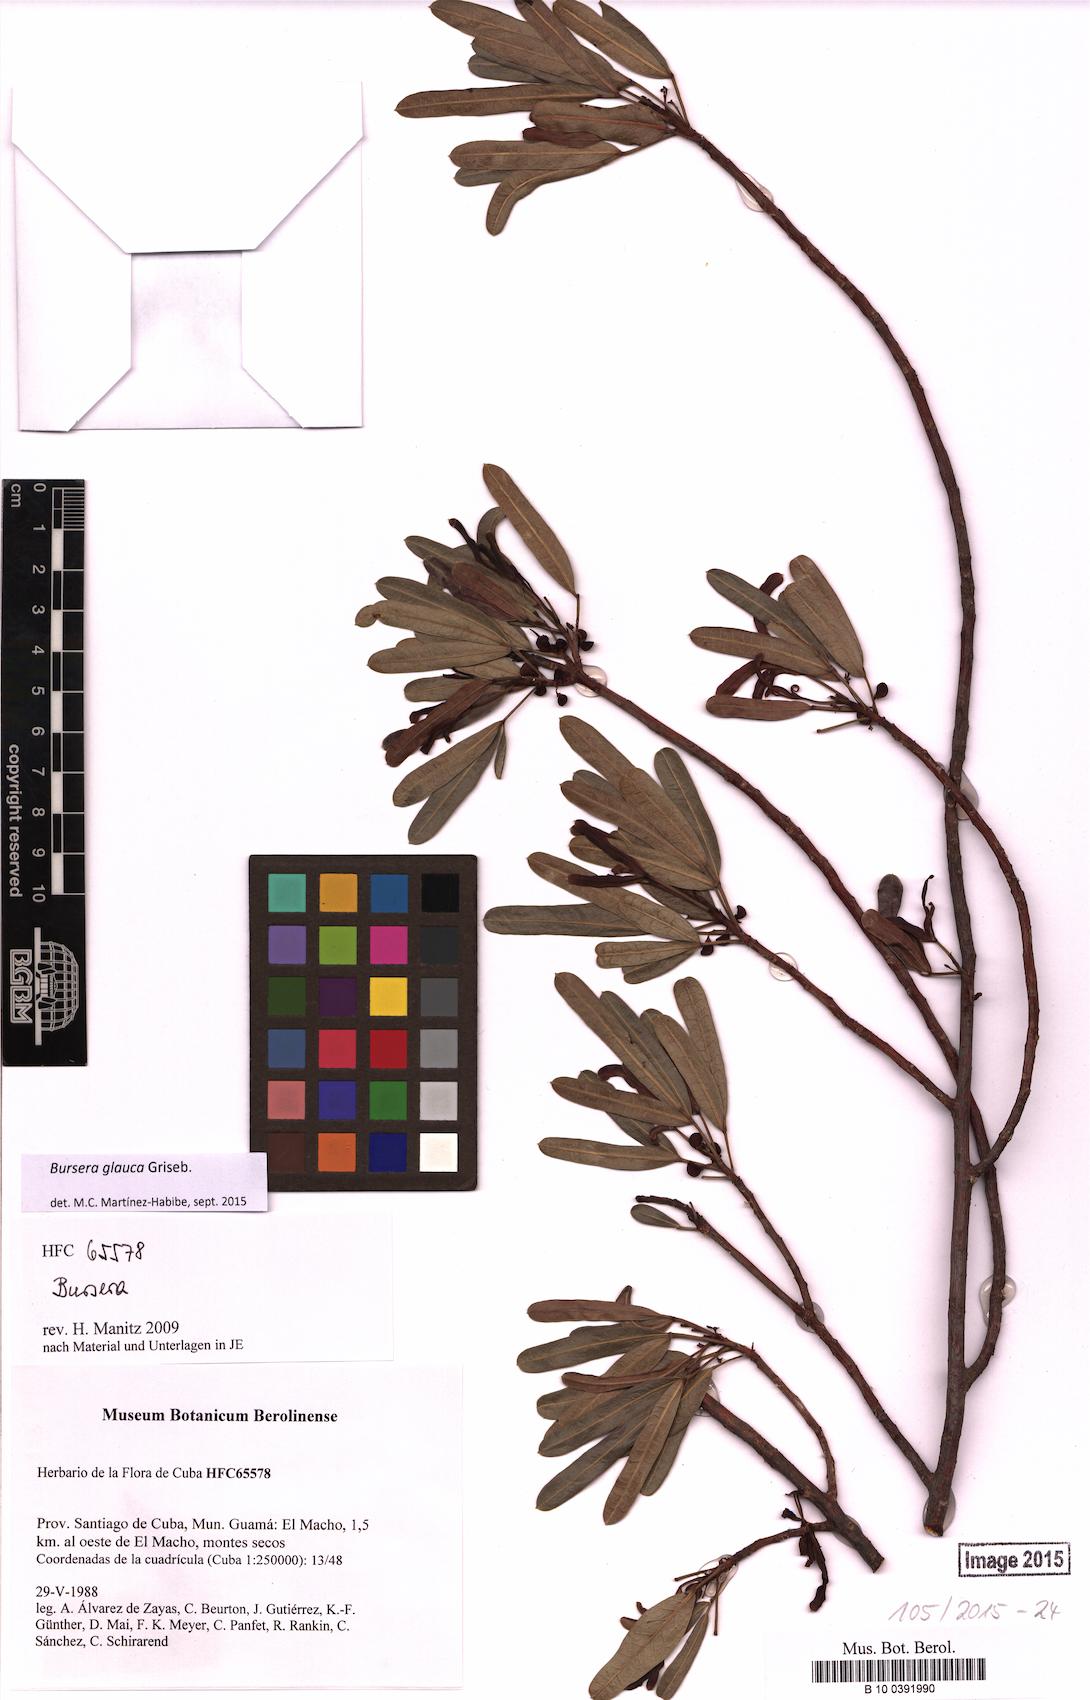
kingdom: Plantae
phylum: Tracheophyta
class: Magnoliopsida
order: Sapindales
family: Burseraceae
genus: Bursera
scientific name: Bursera glauca
